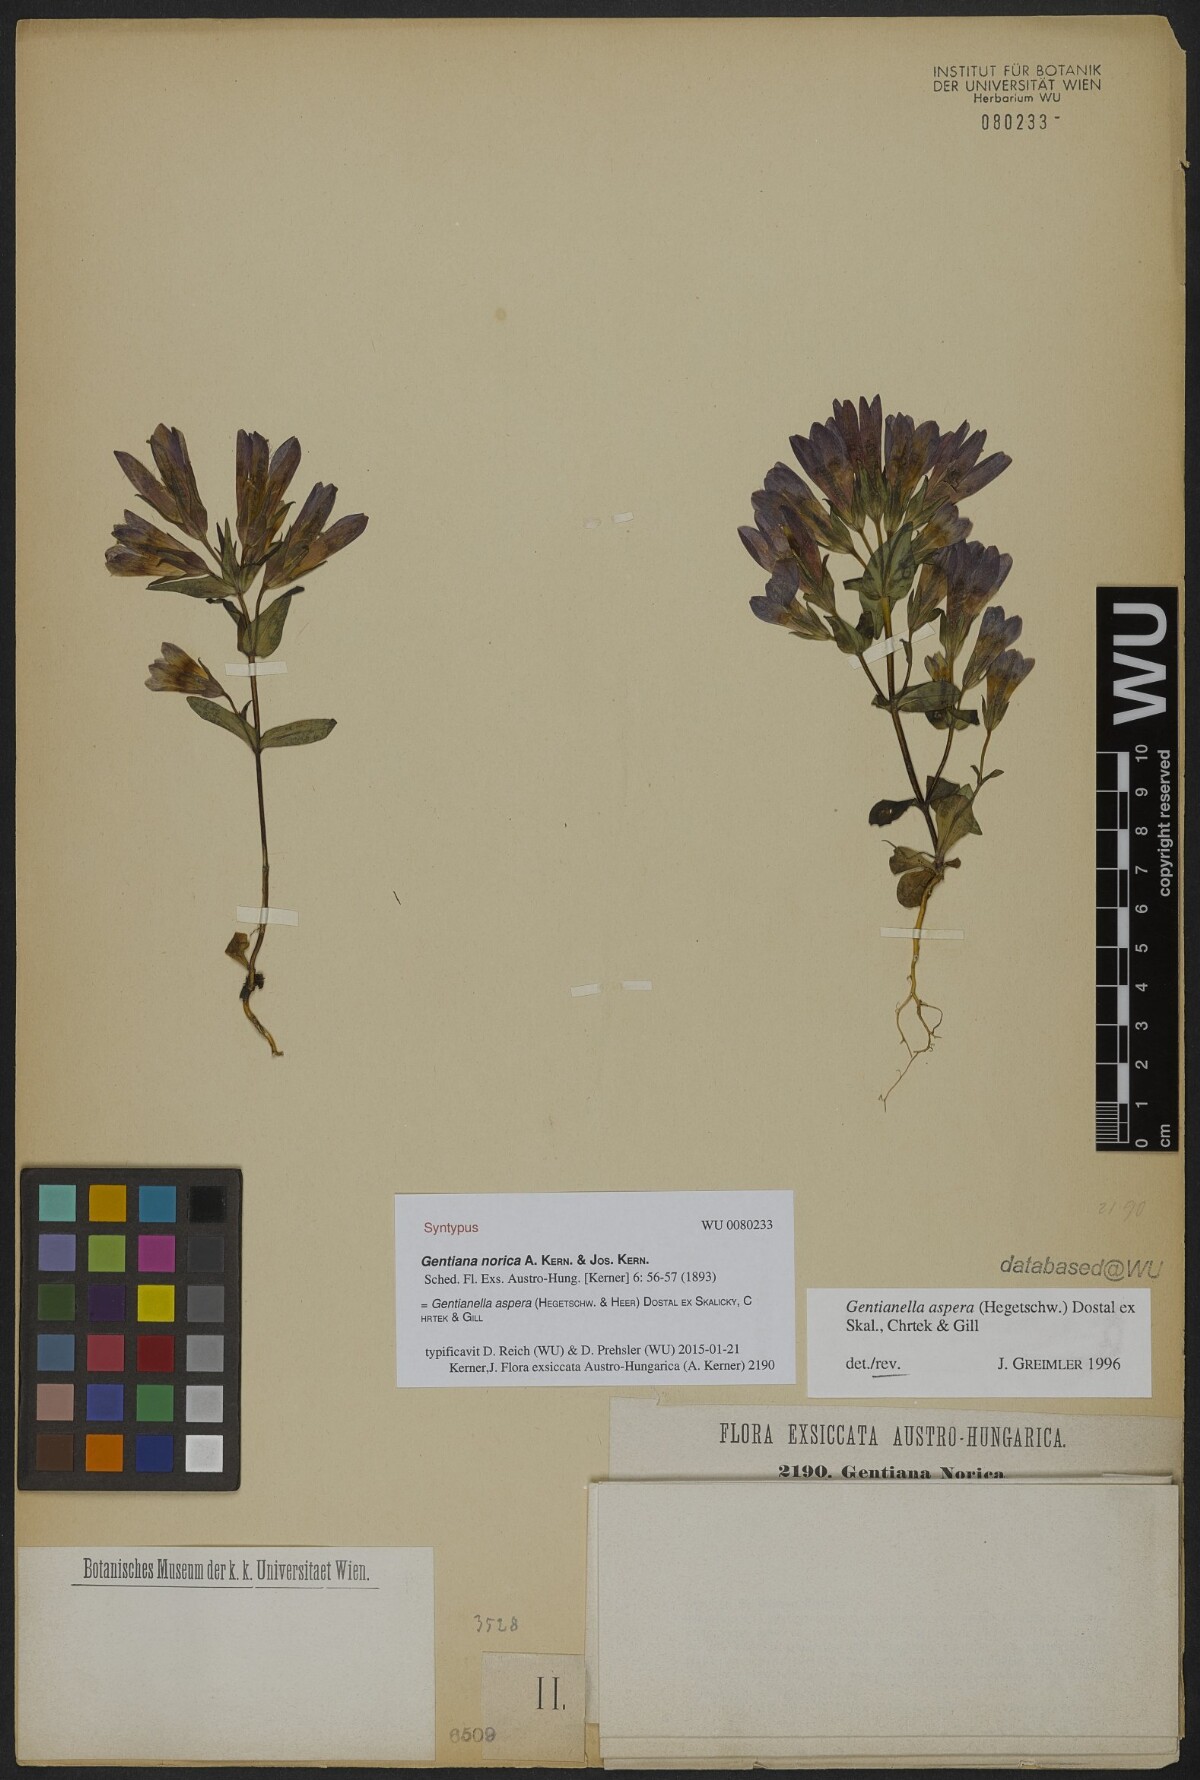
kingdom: Plantae
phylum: Tracheophyta
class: Magnoliopsida
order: Gentianales
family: Gentianaceae
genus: Gentianella
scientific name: Gentianella obtusifolia
